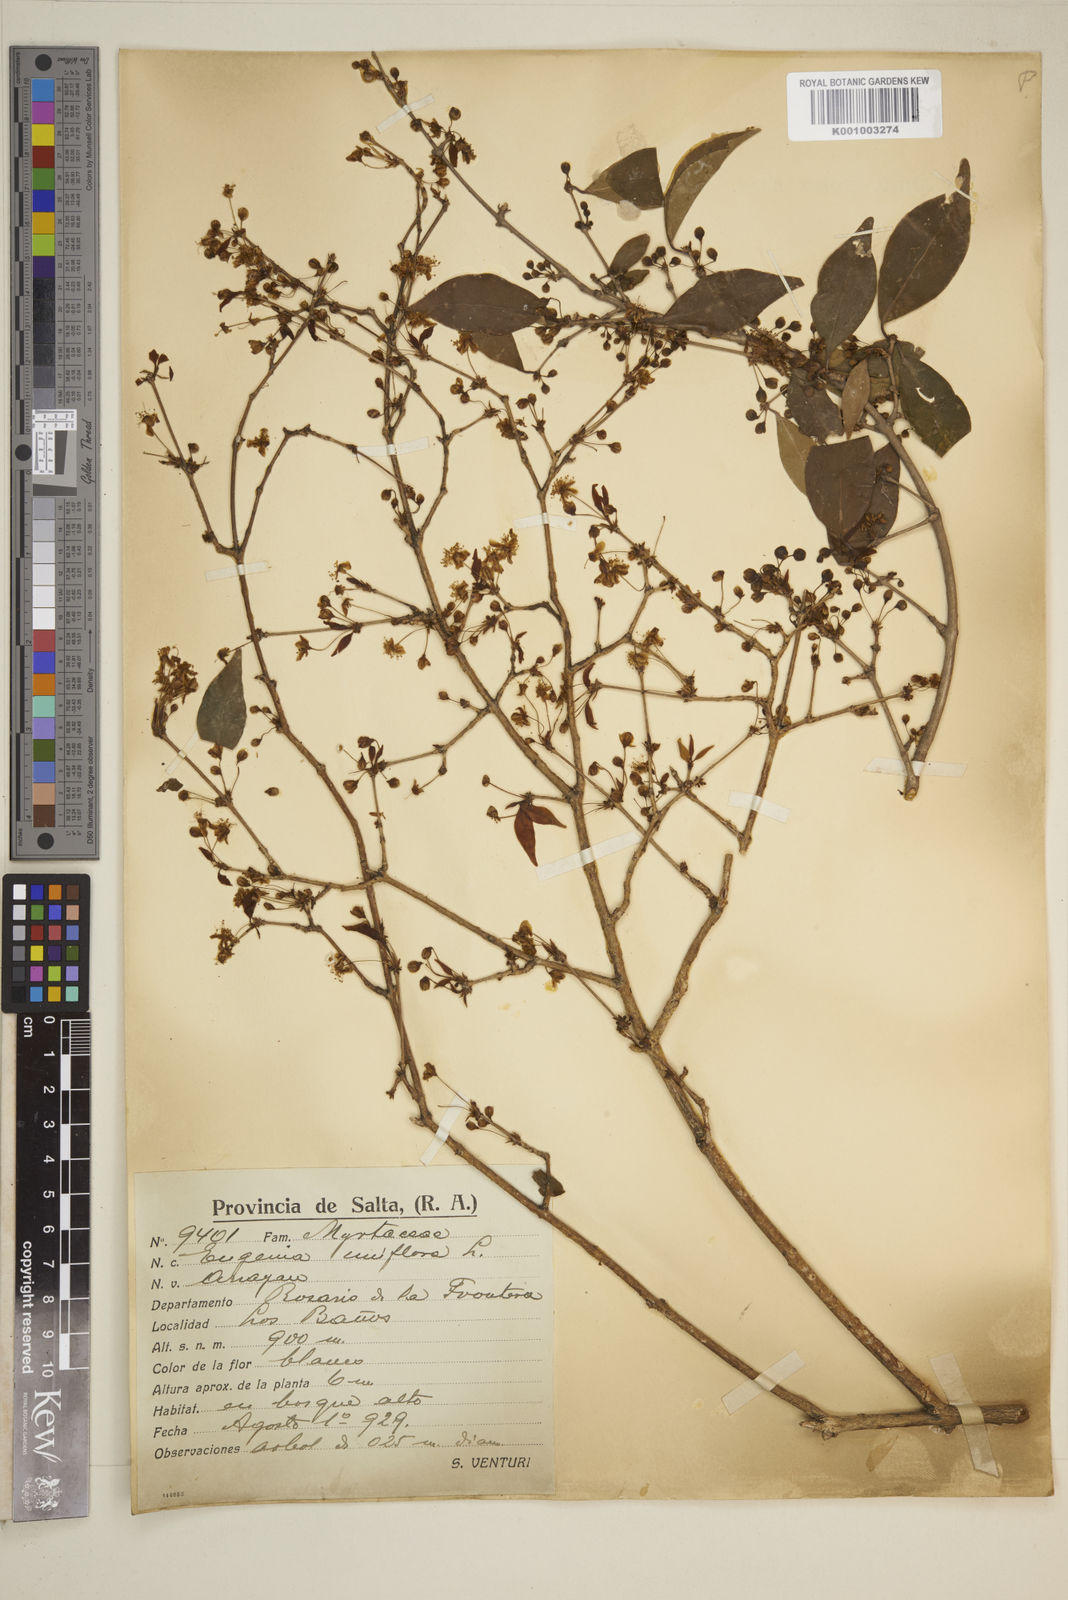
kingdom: Plantae
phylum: Tracheophyta
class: Magnoliopsida
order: Myrtales
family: Myrtaceae
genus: Eugenia
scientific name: Eugenia uniflora
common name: Surinam cherry
